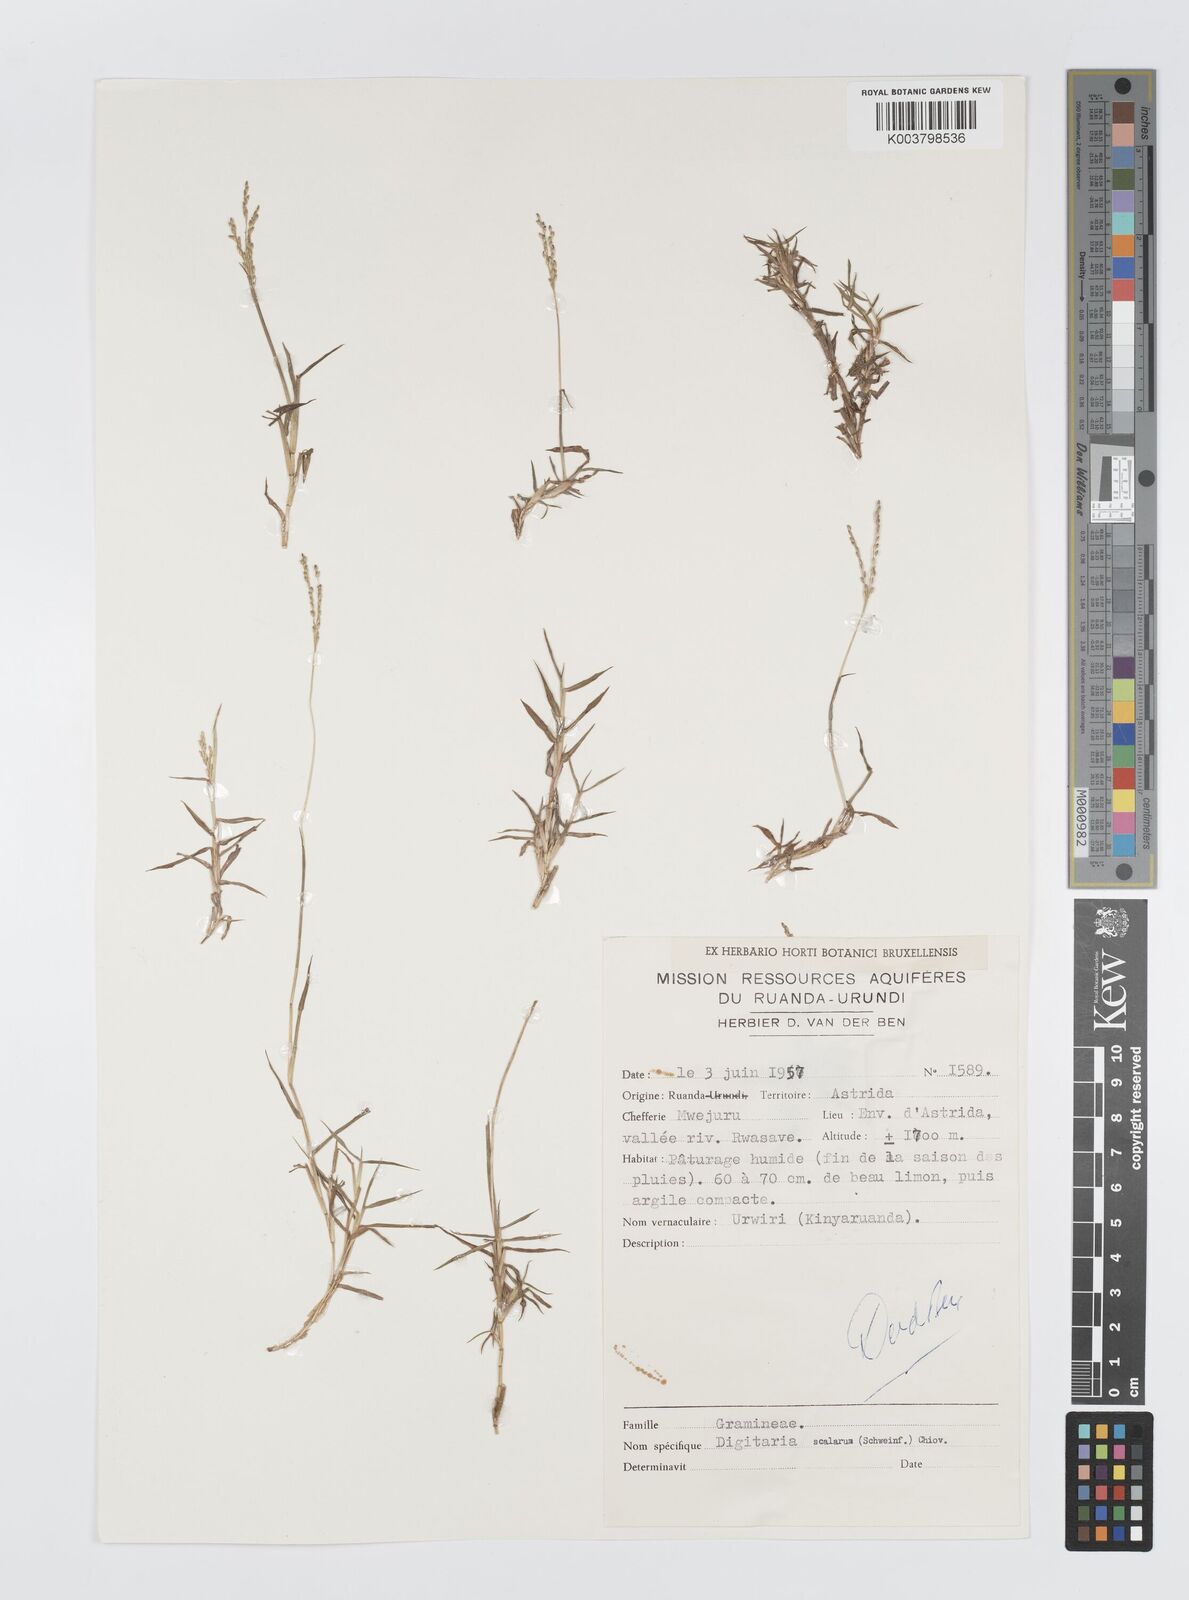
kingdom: Plantae
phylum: Tracheophyta
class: Liliopsida
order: Poales
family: Poaceae
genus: Digitaria
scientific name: Digitaria abyssinica
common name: African couchgrass
